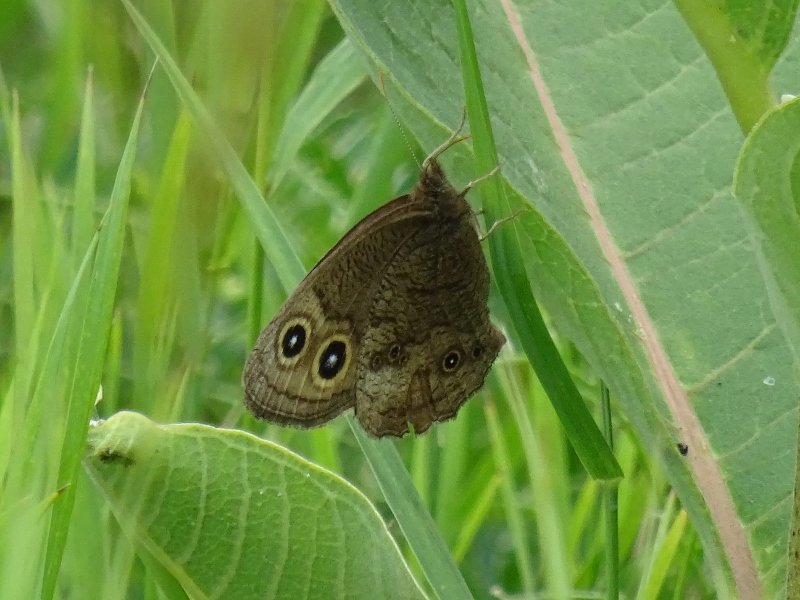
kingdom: Animalia
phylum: Arthropoda
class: Insecta
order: Lepidoptera
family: Nymphalidae
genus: Cercyonis
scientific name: Cercyonis pegala
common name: Common Wood-Nymph
